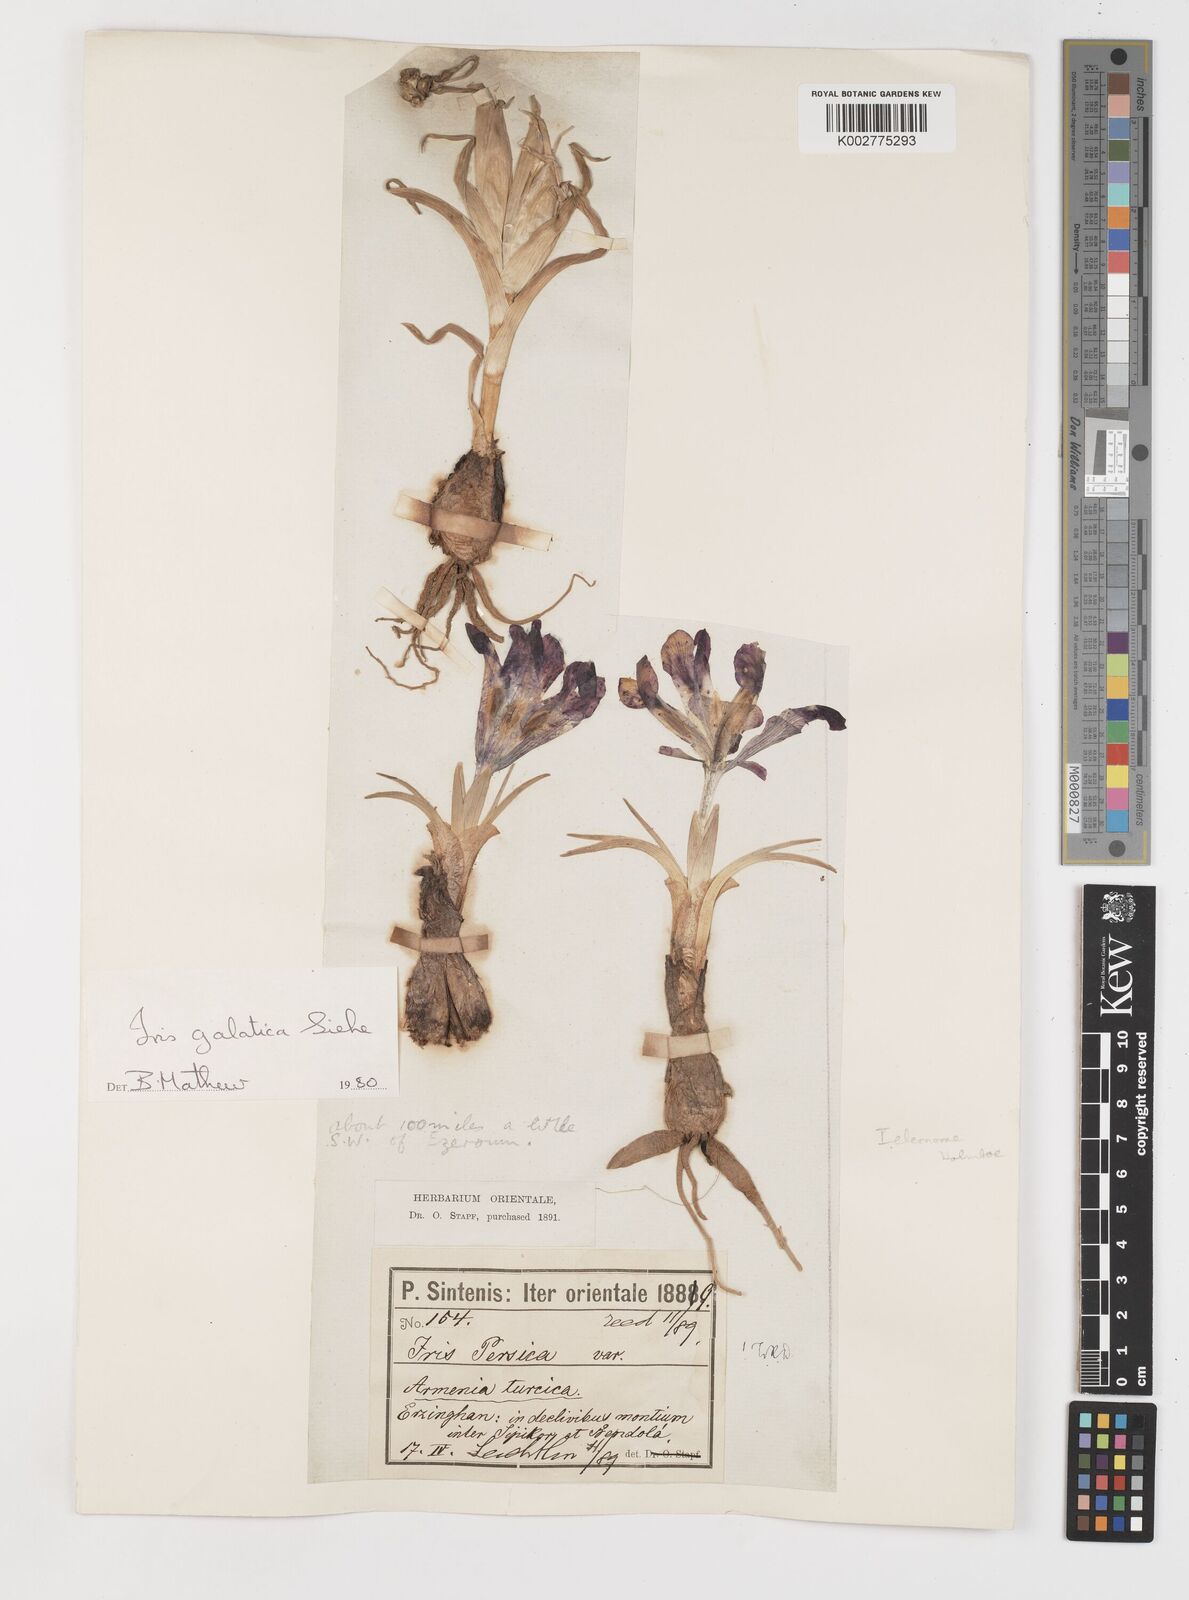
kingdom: Plantae
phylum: Tracheophyta
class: Liliopsida
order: Asparagales
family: Iridaceae
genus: Iris
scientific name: Iris galatica
